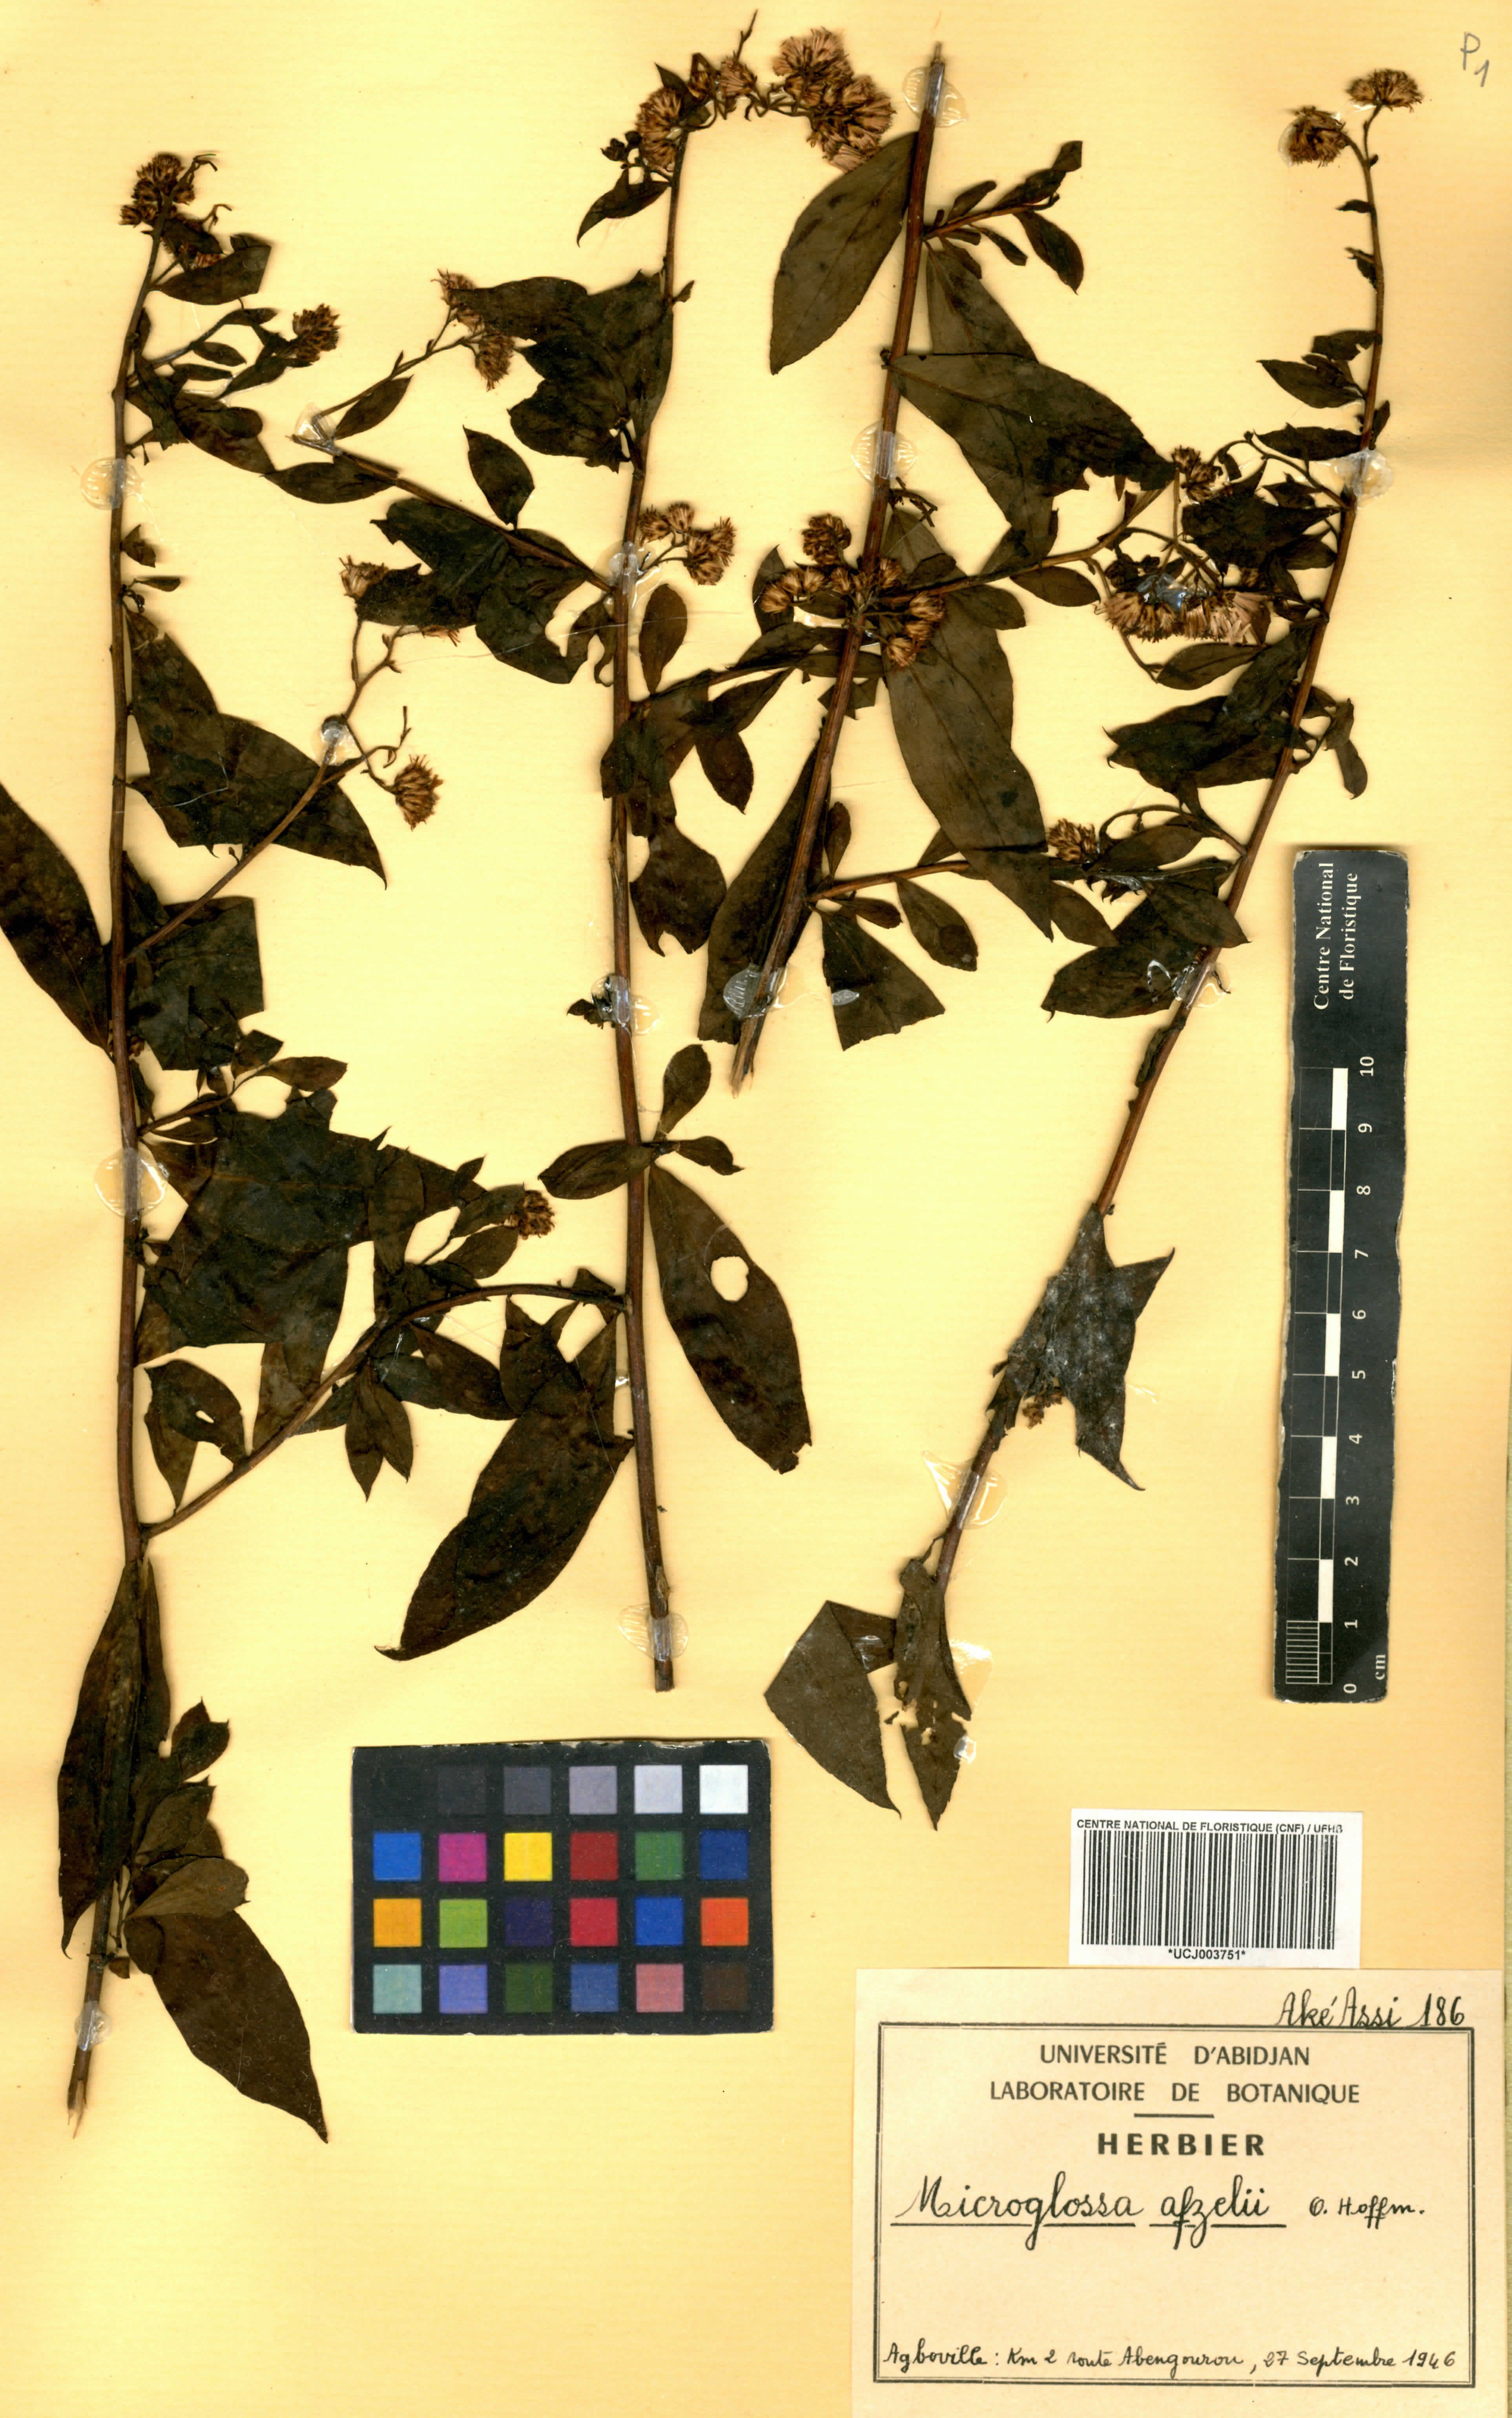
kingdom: Plantae
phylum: Tracheophyta
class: Magnoliopsida
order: Asterales
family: Asteraceae
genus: Microglossa
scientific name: Microglossa afzelii
